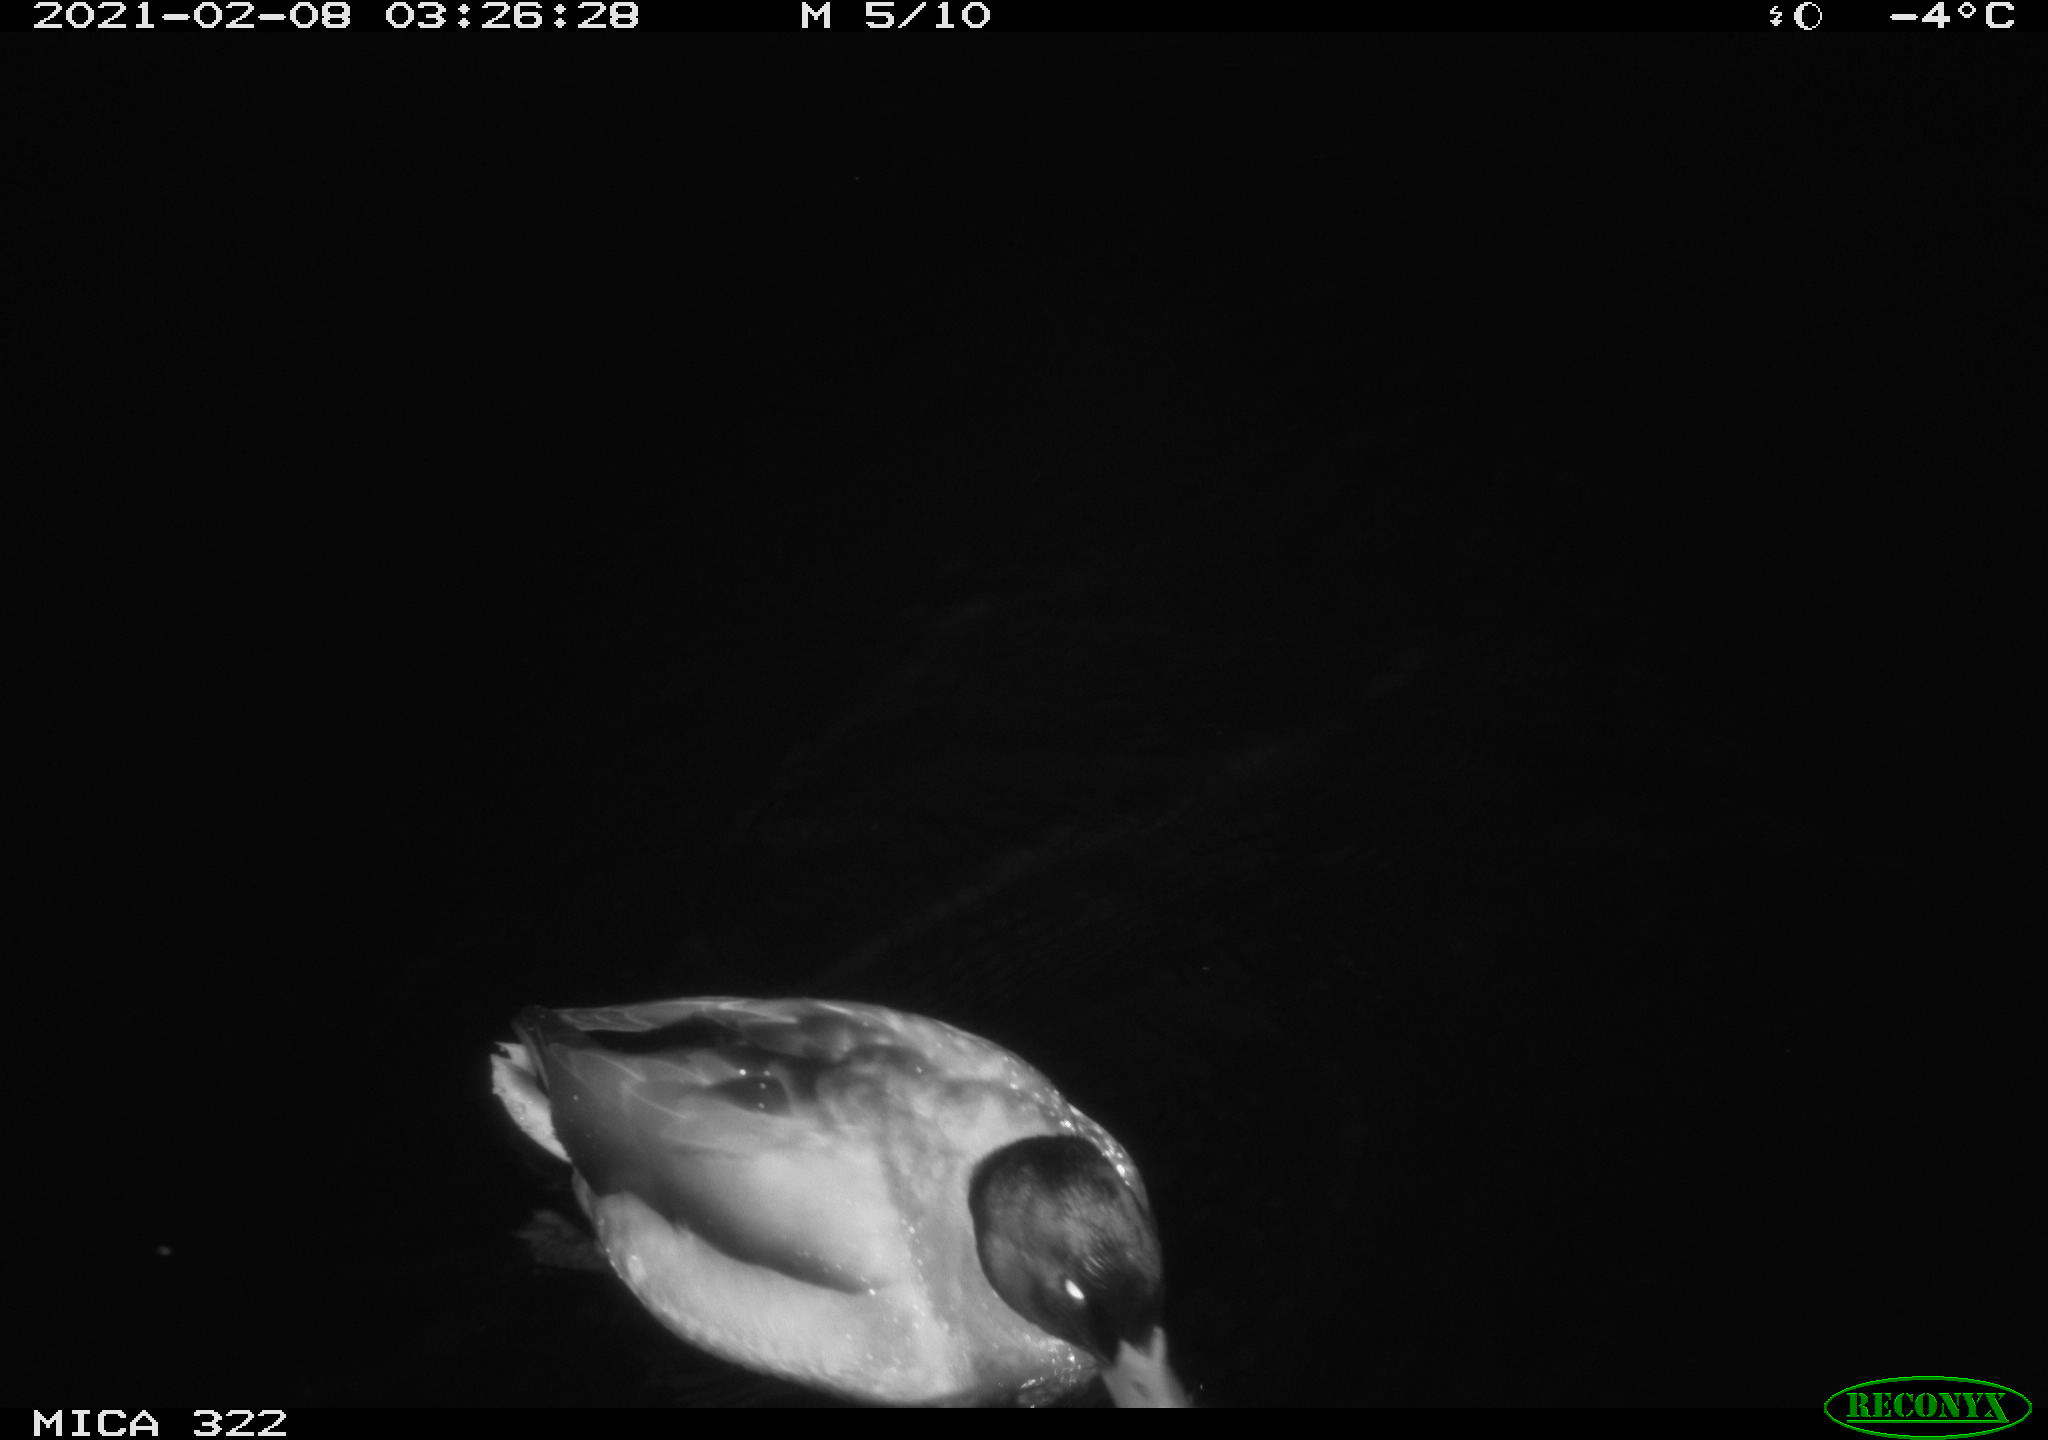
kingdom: Animalia
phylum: Chordata
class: Aves
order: Anseriformes
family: Anatidae
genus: Anas
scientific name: Anas platyrhynchos
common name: Mallard
